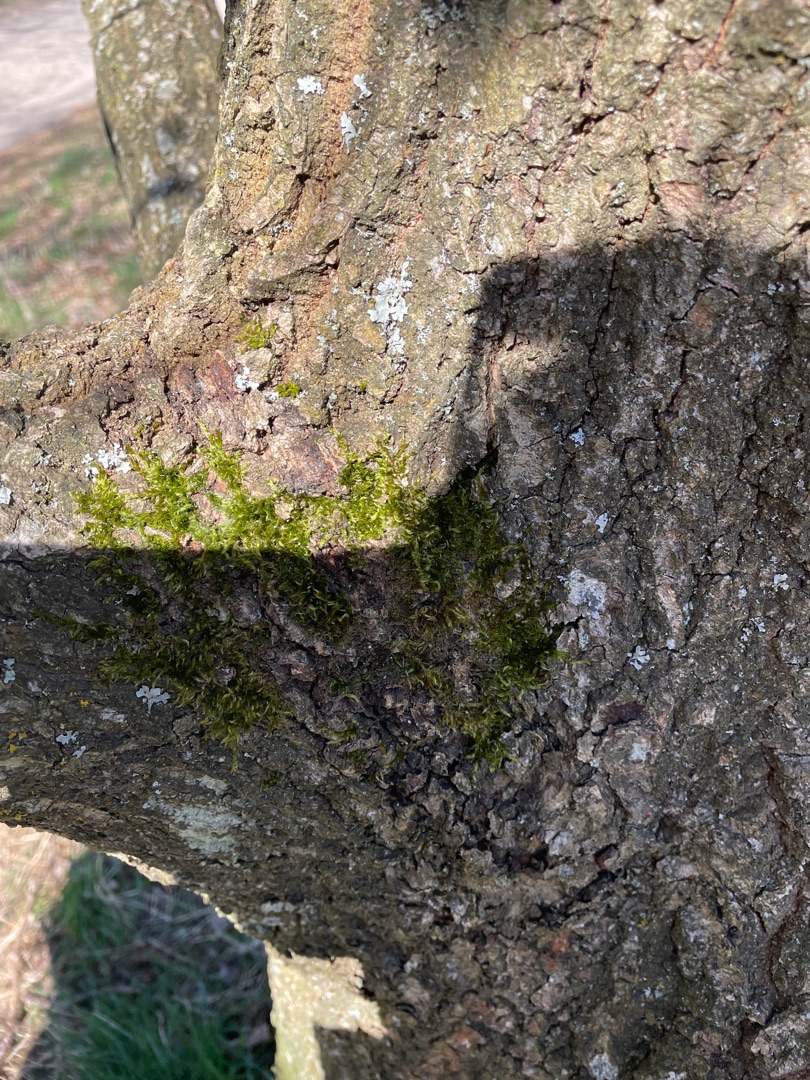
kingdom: Plantae
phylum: Bryophyta
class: Bryopsida
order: Hypnales
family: Hypnaceae
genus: Hypnum
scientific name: Hypnum
